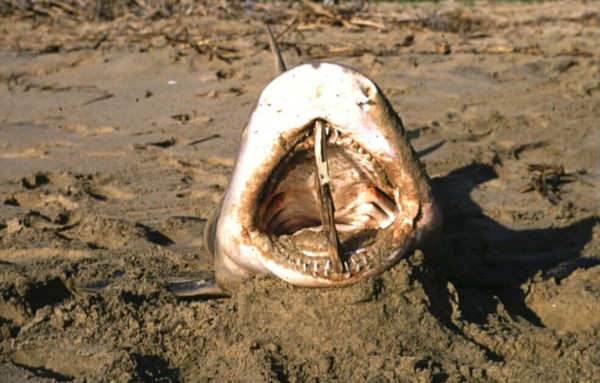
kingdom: Animalia
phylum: Chordata
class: Elasmobranchii
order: Carcharhiniformes
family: Carcharhinidae
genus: Negaprion
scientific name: Negaprion acutidens
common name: Lemon shark
